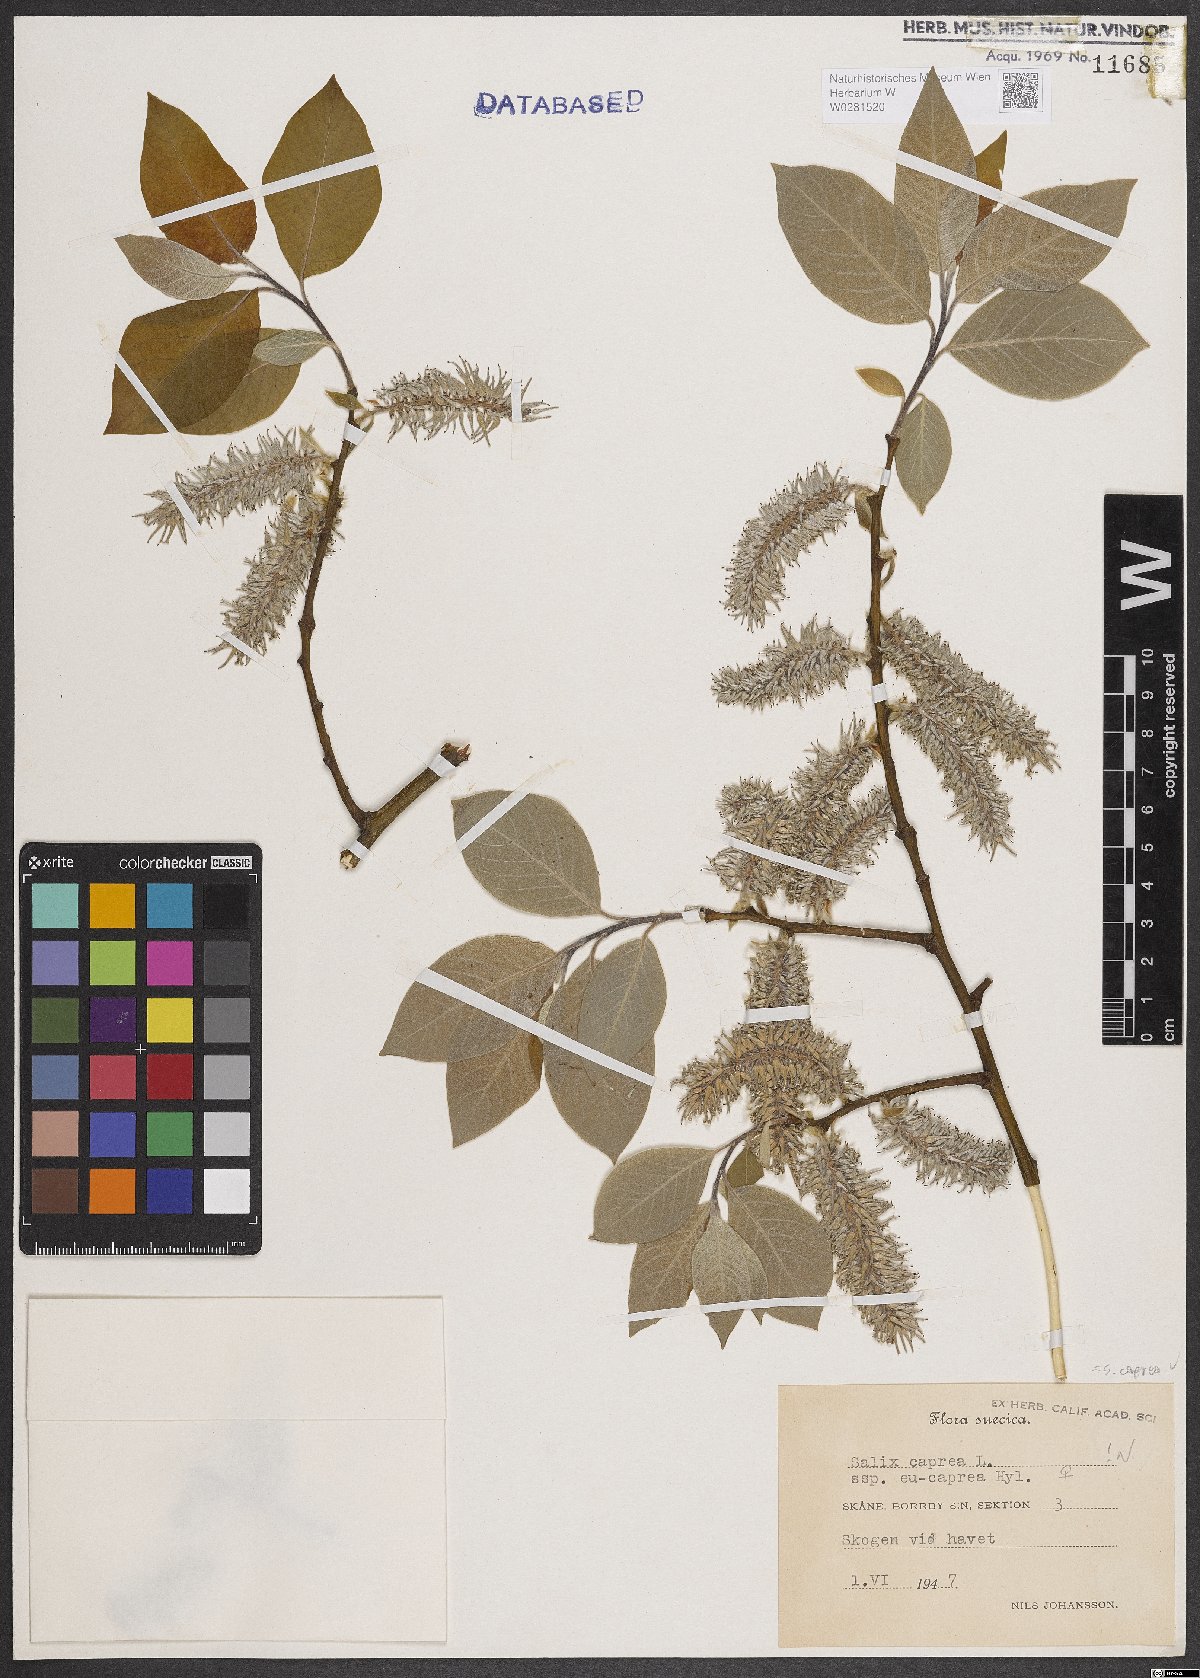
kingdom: Plantae
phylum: Tracheophyta
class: Magnoliopsida
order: Malpighiales
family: Salicaceae
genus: Salix
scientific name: Salix caprea
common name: Goat willow
